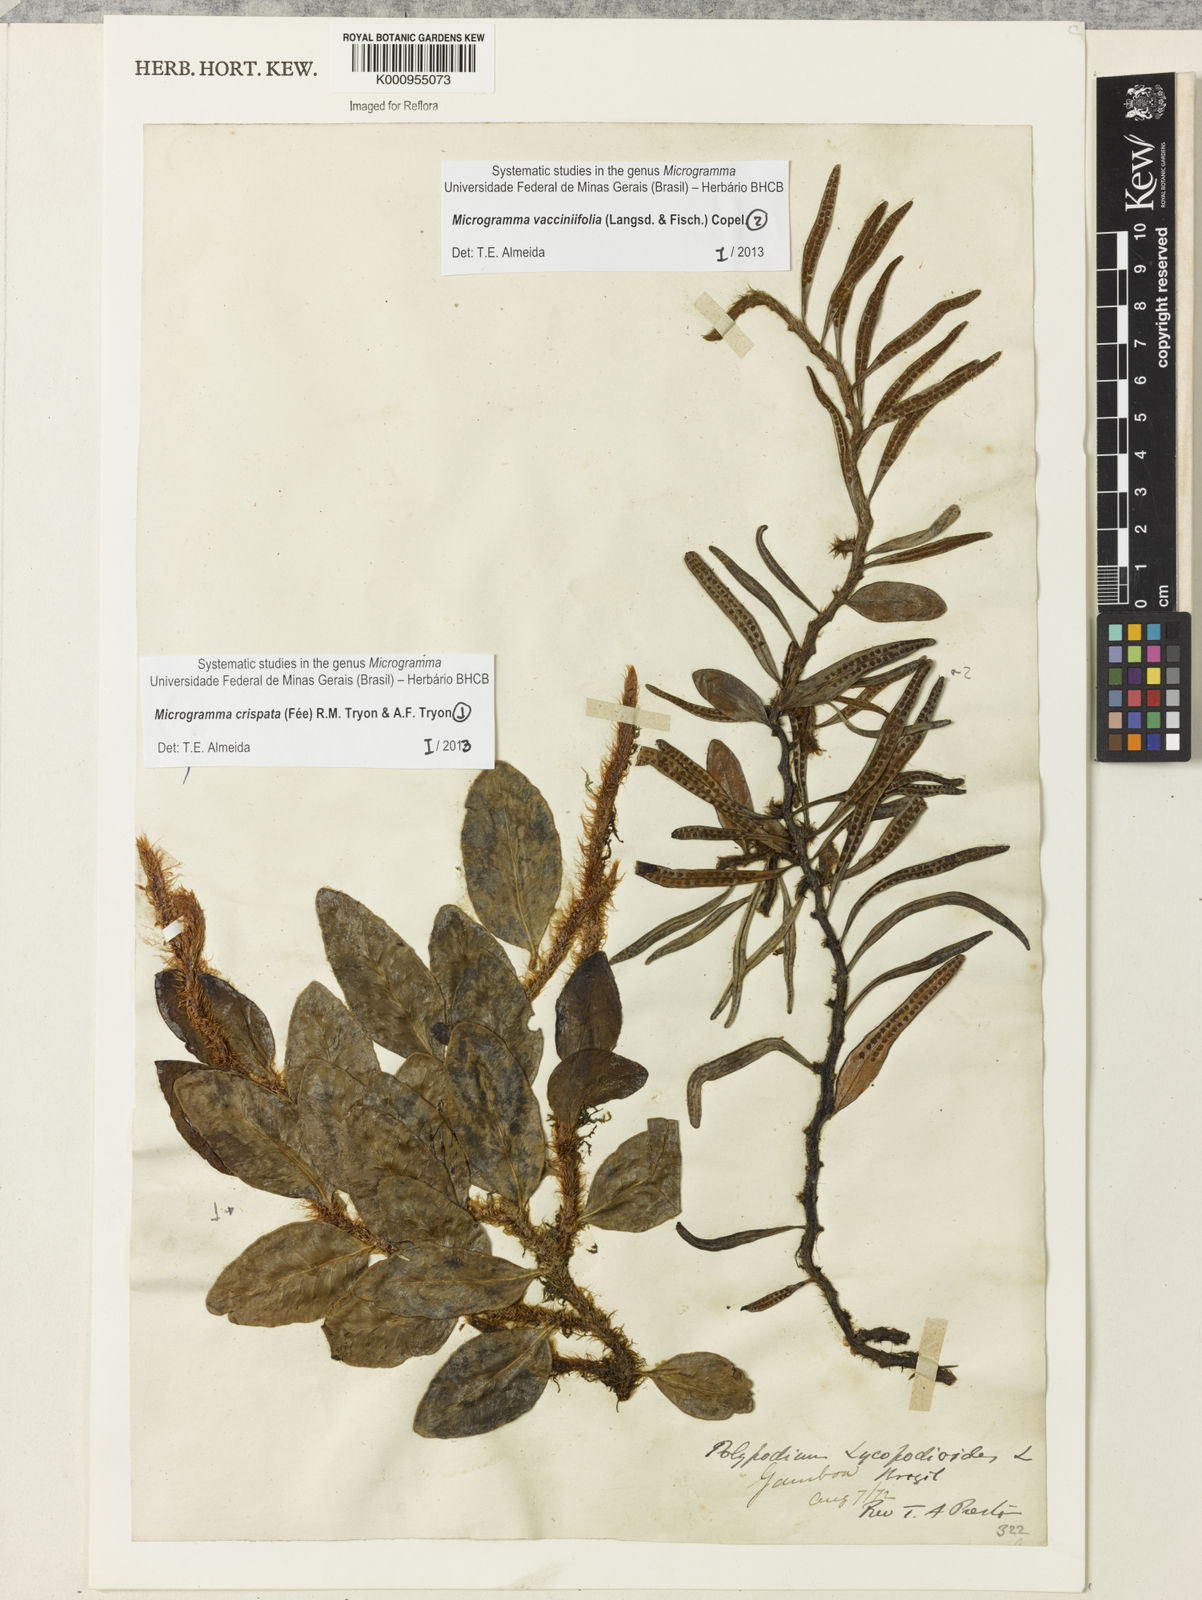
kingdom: Plantae
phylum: Tracheophyta
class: Polypodiopsida
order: Polypodiales
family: Polypodiaceae
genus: Microgramma
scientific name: Microgramma
